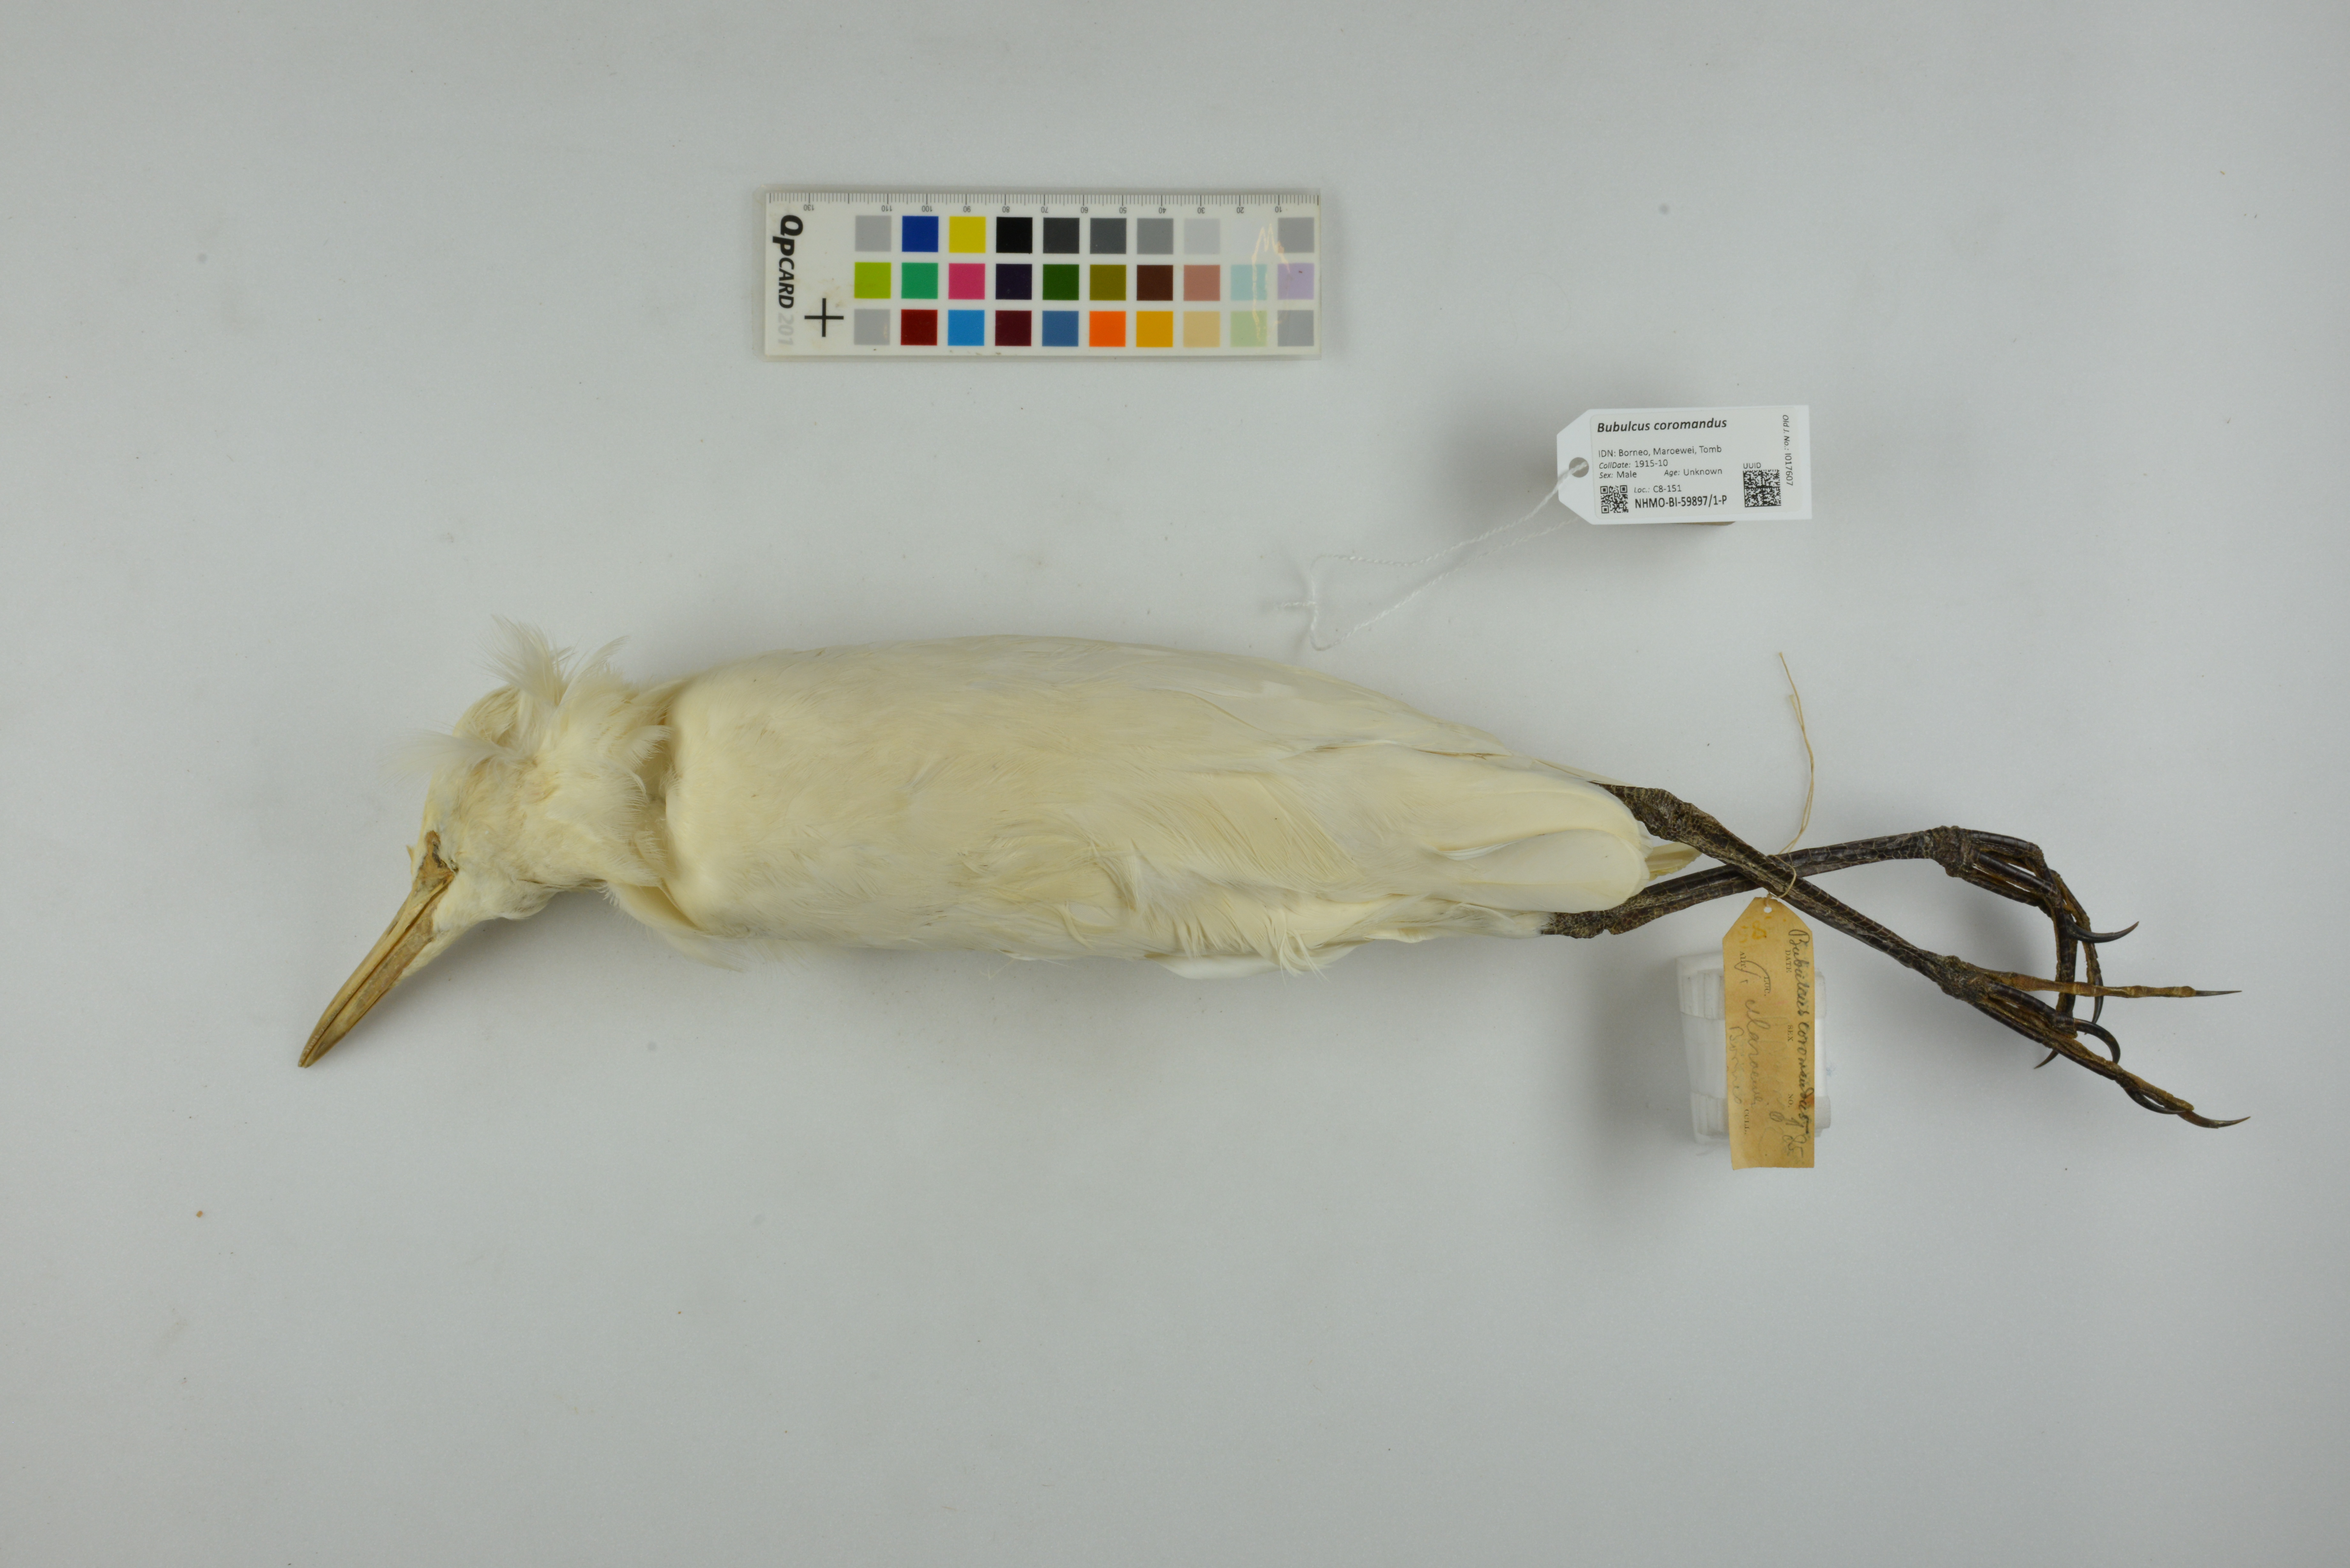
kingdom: Animalia
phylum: Chordata
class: Aves
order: Pelecaniformes
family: Ardeidae
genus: Bubulcus
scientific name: Bubulcus coromandus
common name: Eastern cattle egret
